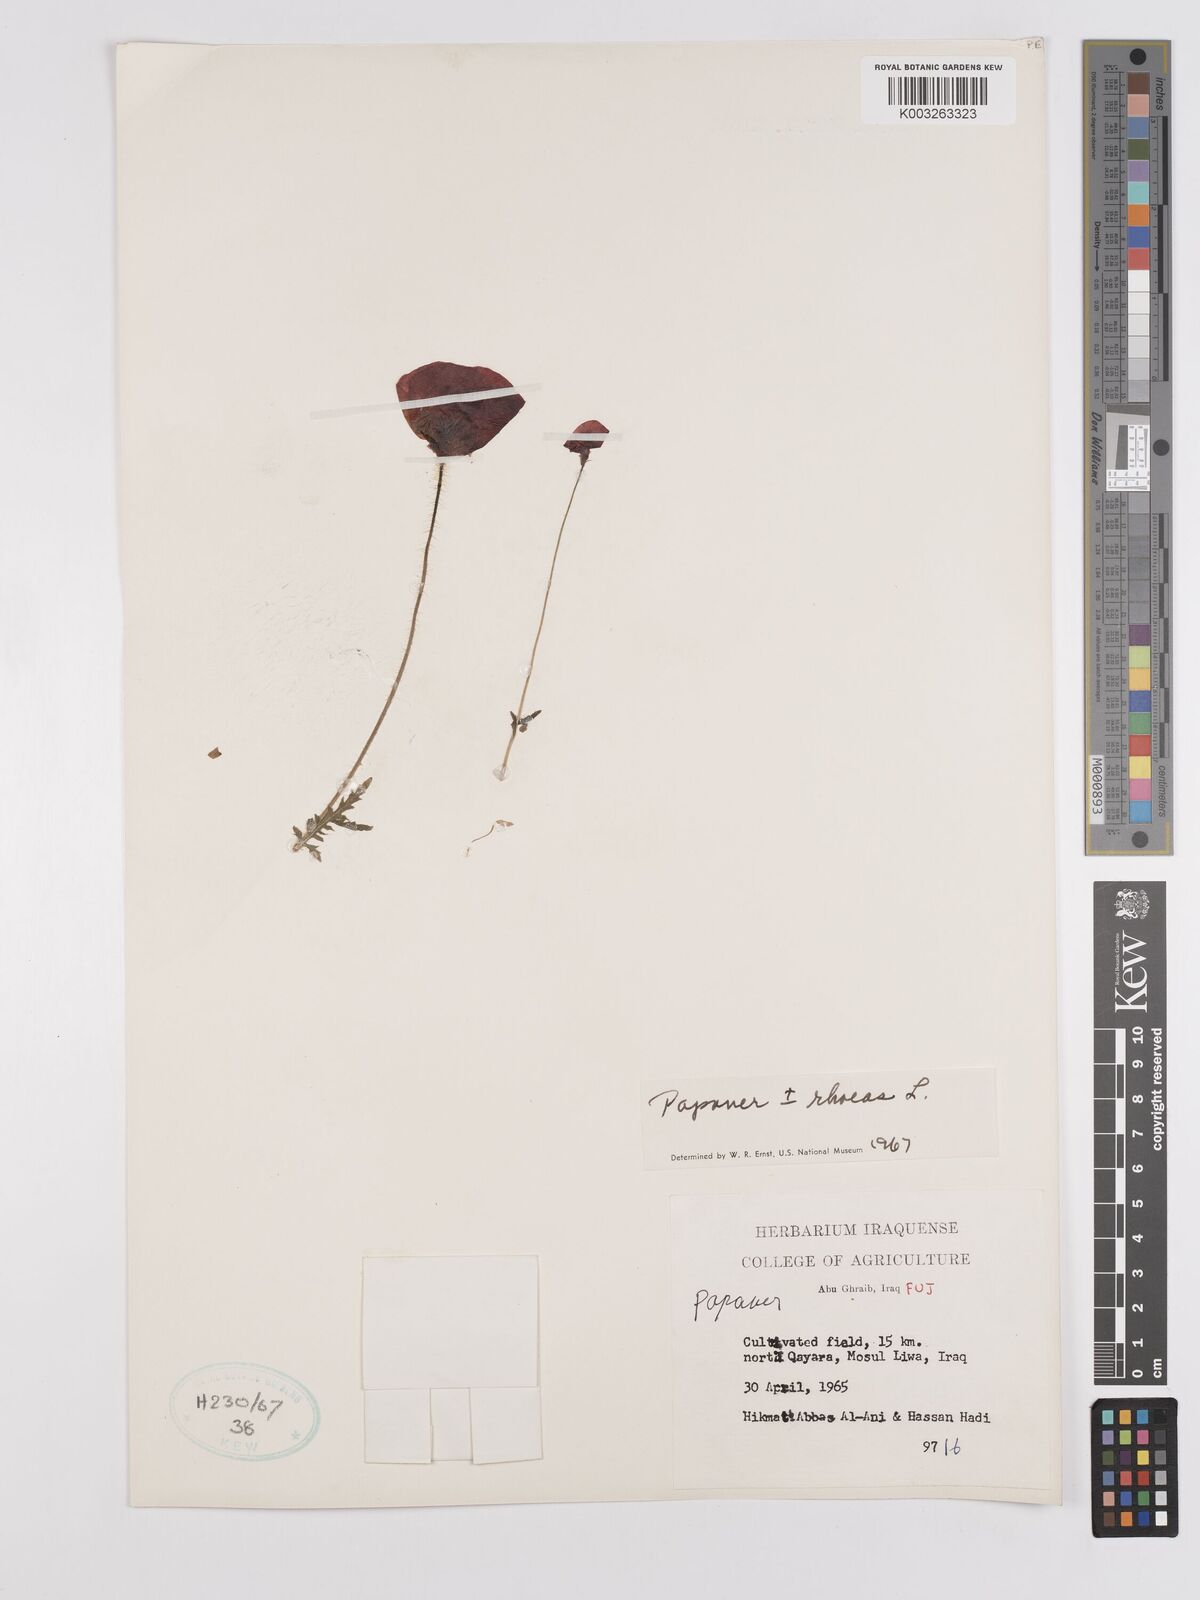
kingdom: Plantae
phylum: Tracheophyta
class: Magnoliopsida
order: Ranunculales
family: Papaveraceae
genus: Papaver
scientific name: Papaver rhoeas
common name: Corn poppy
